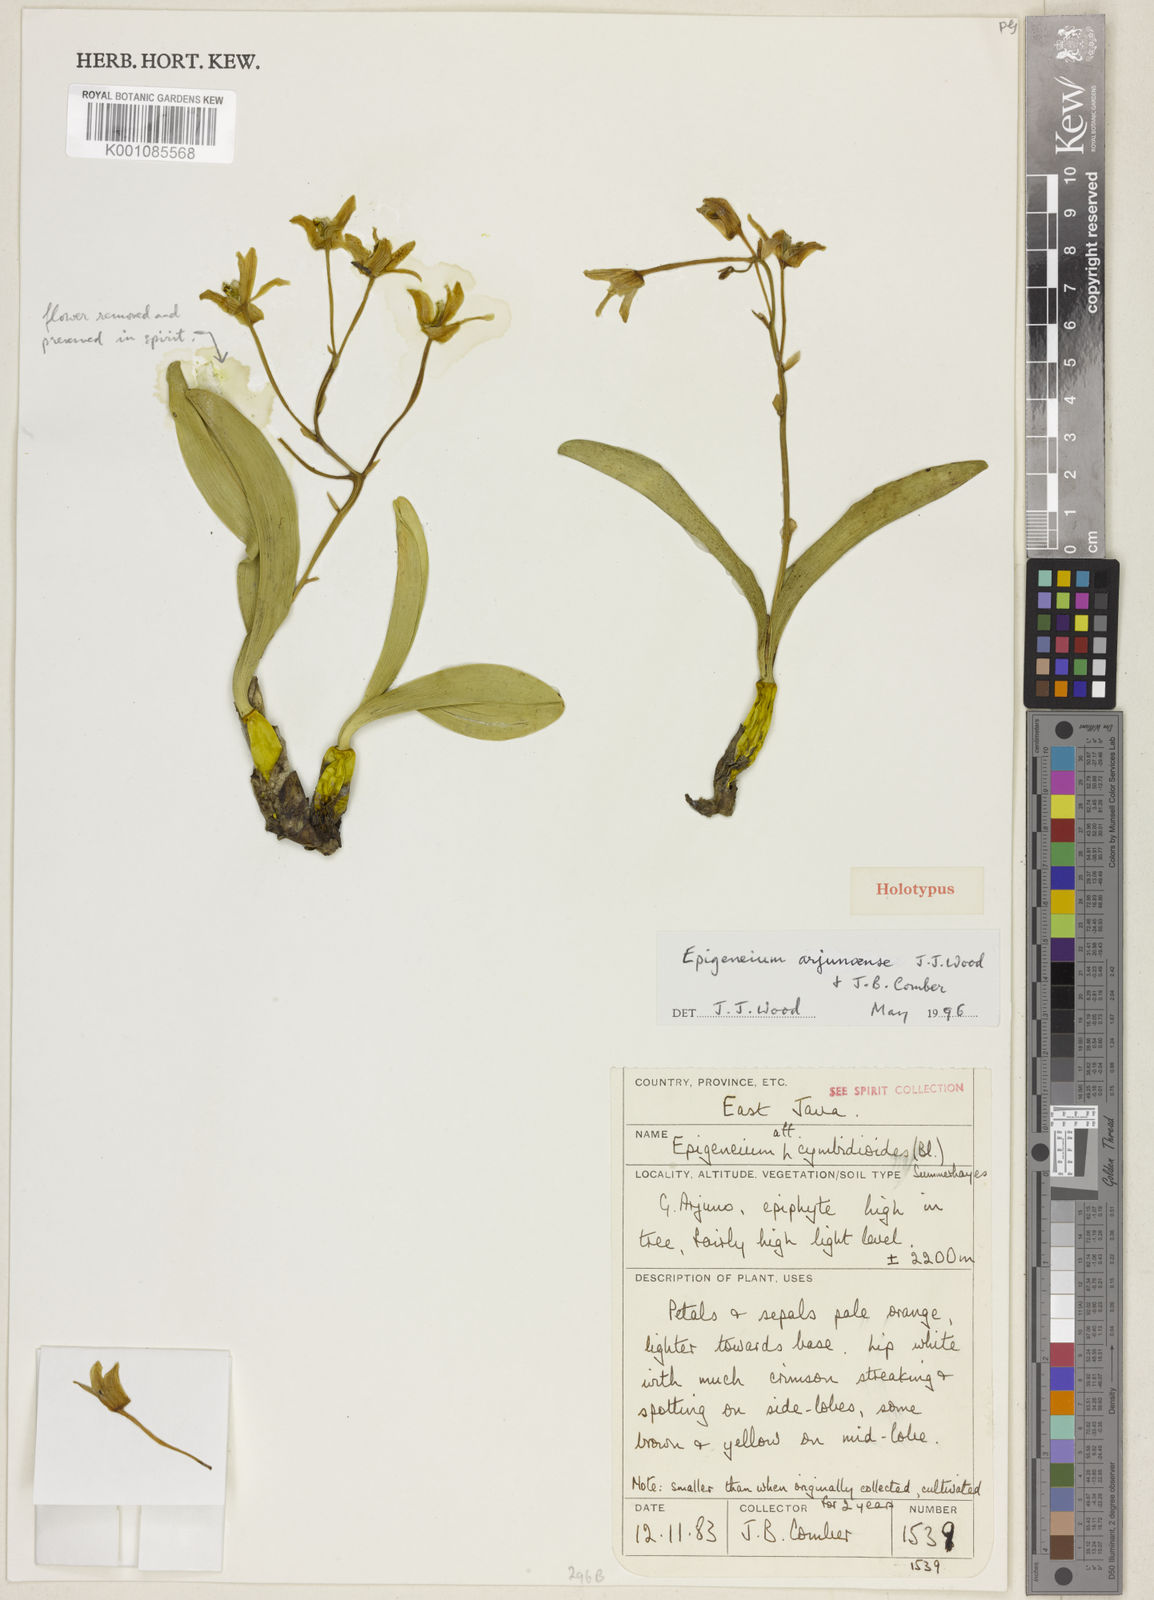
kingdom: Plantae
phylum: Tracheophyta
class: Liliopsida
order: Asparagales
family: Orchidaceae
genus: Dendrobium
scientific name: Dendrobium arjunoense
